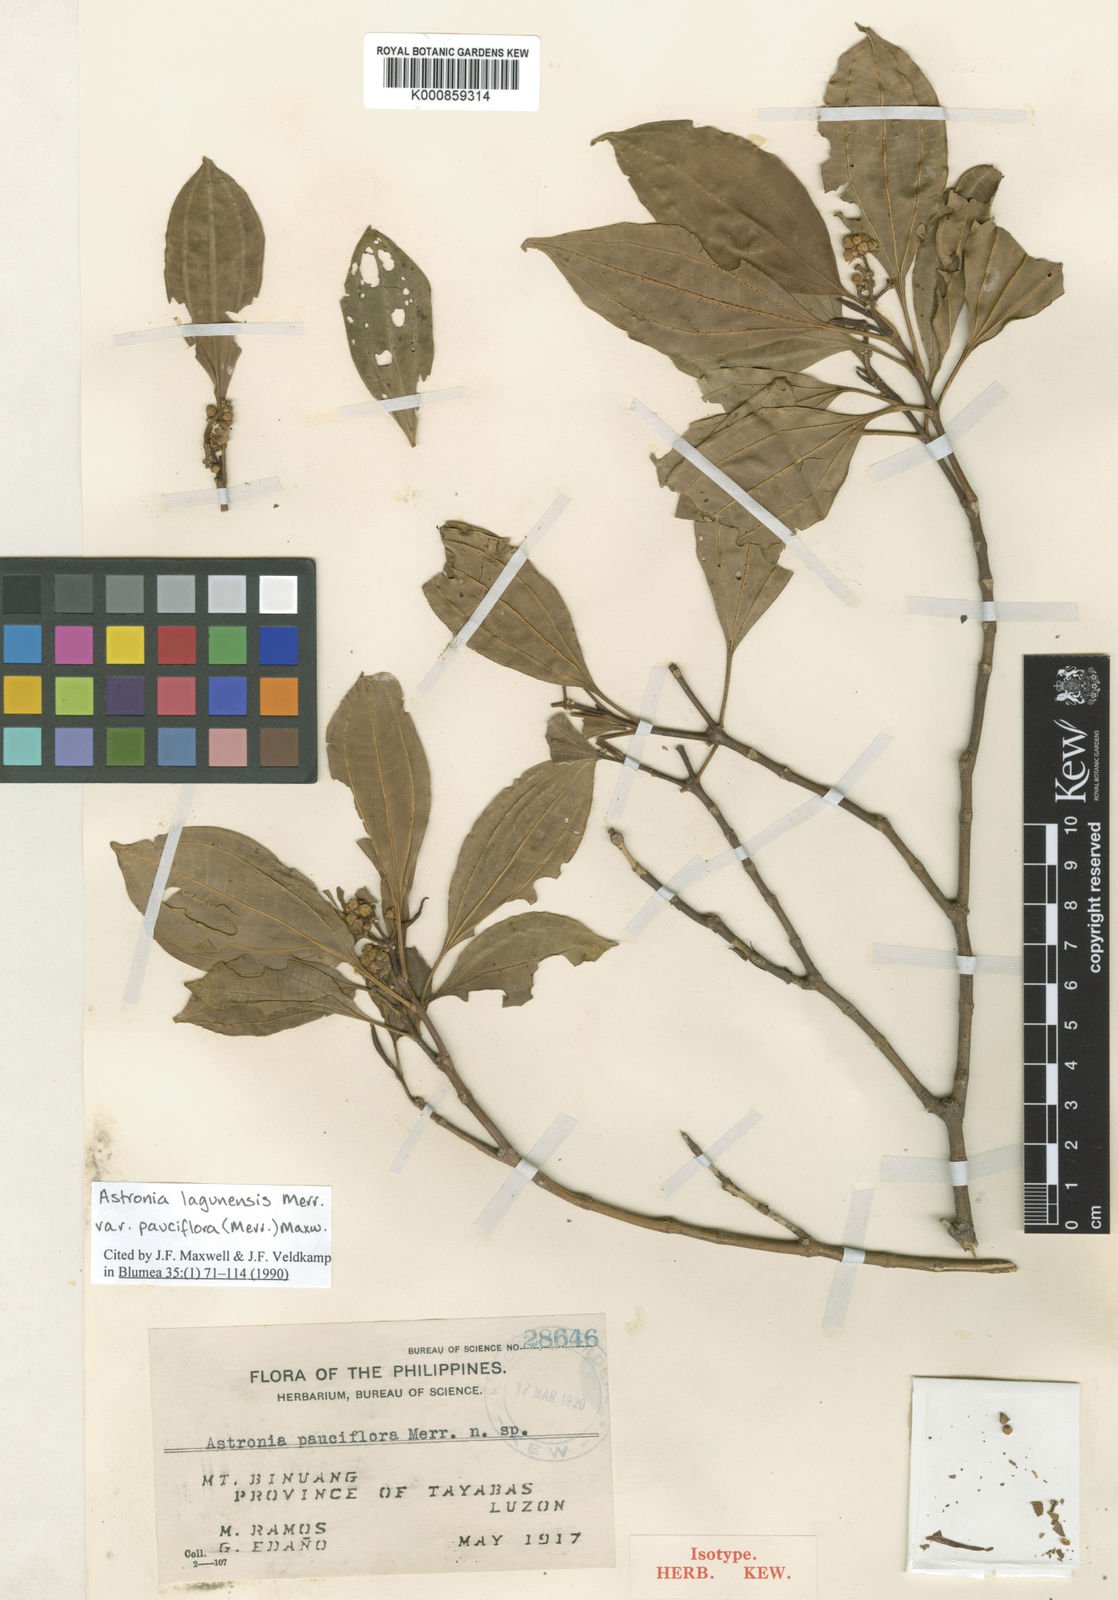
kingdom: Plantae
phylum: Tracheophyta
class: Magnoliopsida
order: Myrtales
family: Melastomataceae
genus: Astronia
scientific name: Astronia lagunensis
